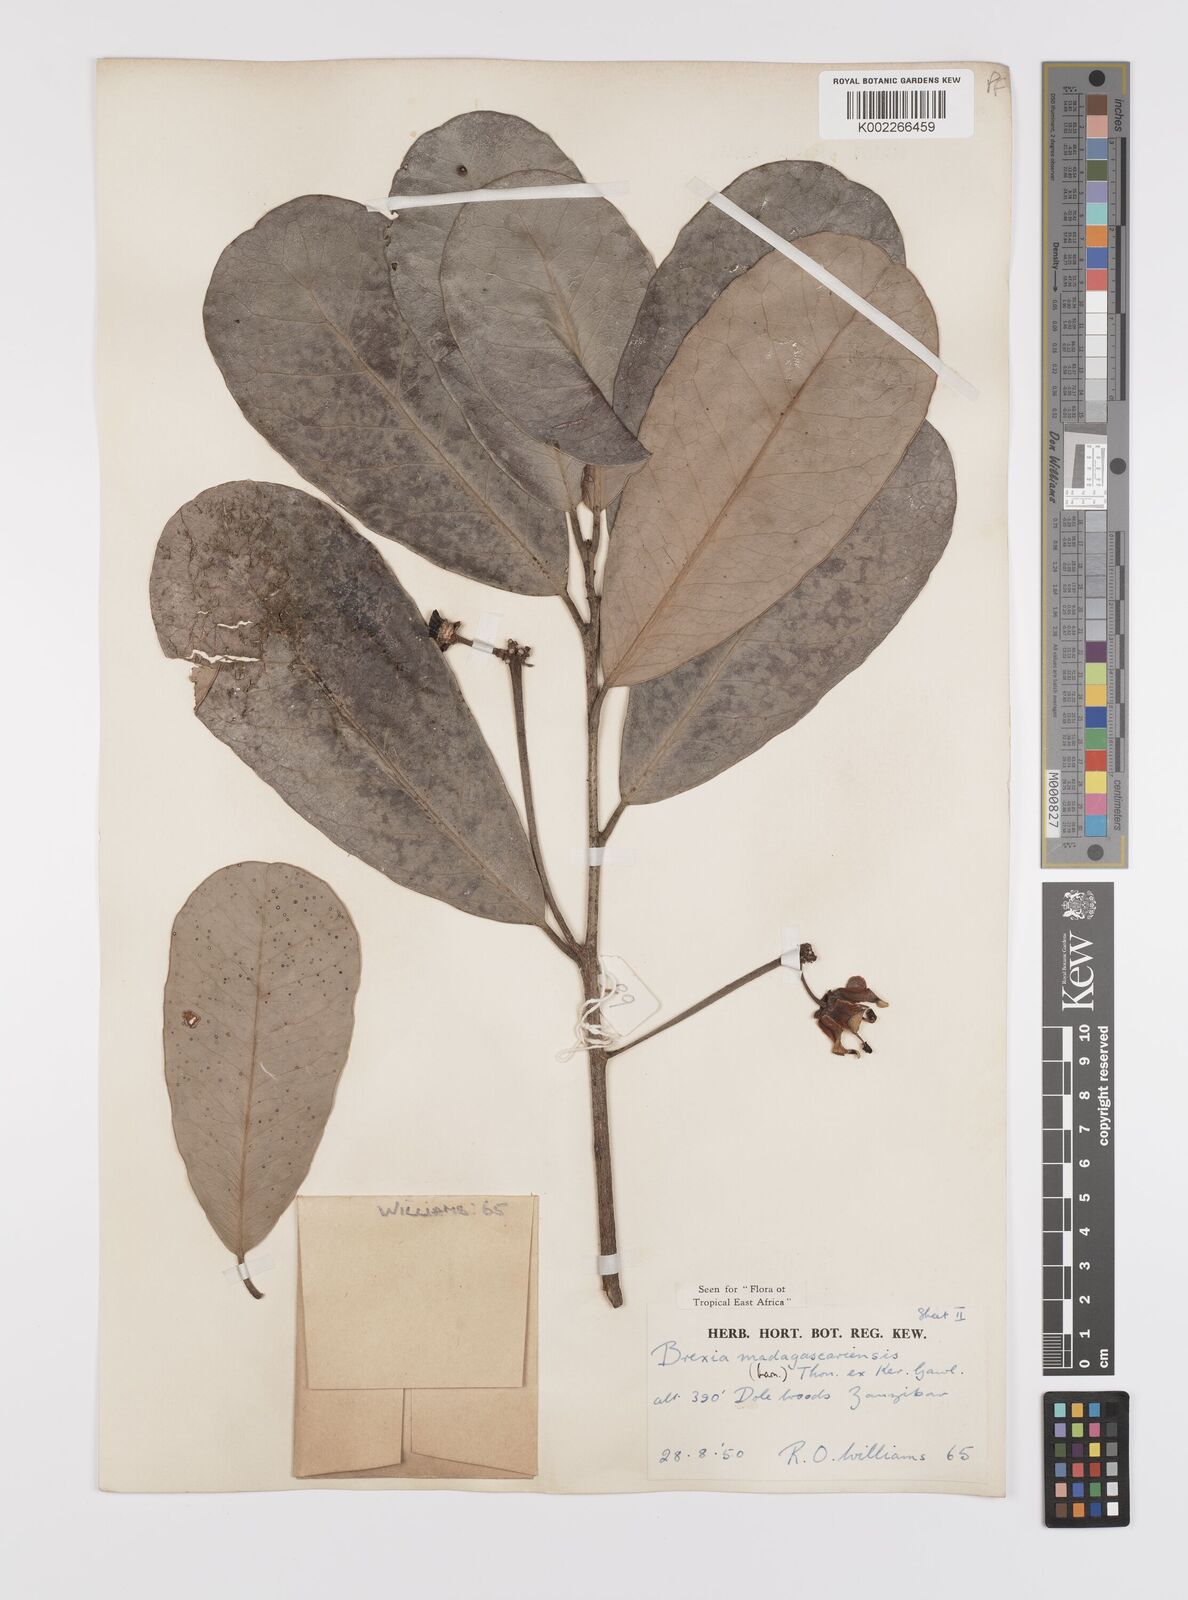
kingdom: Plantae
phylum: Tracheophyta
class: Magnoliopsida
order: Celastrales
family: Celastraceae
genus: Brexia
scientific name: Brexia madagascariensis
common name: Brexia
